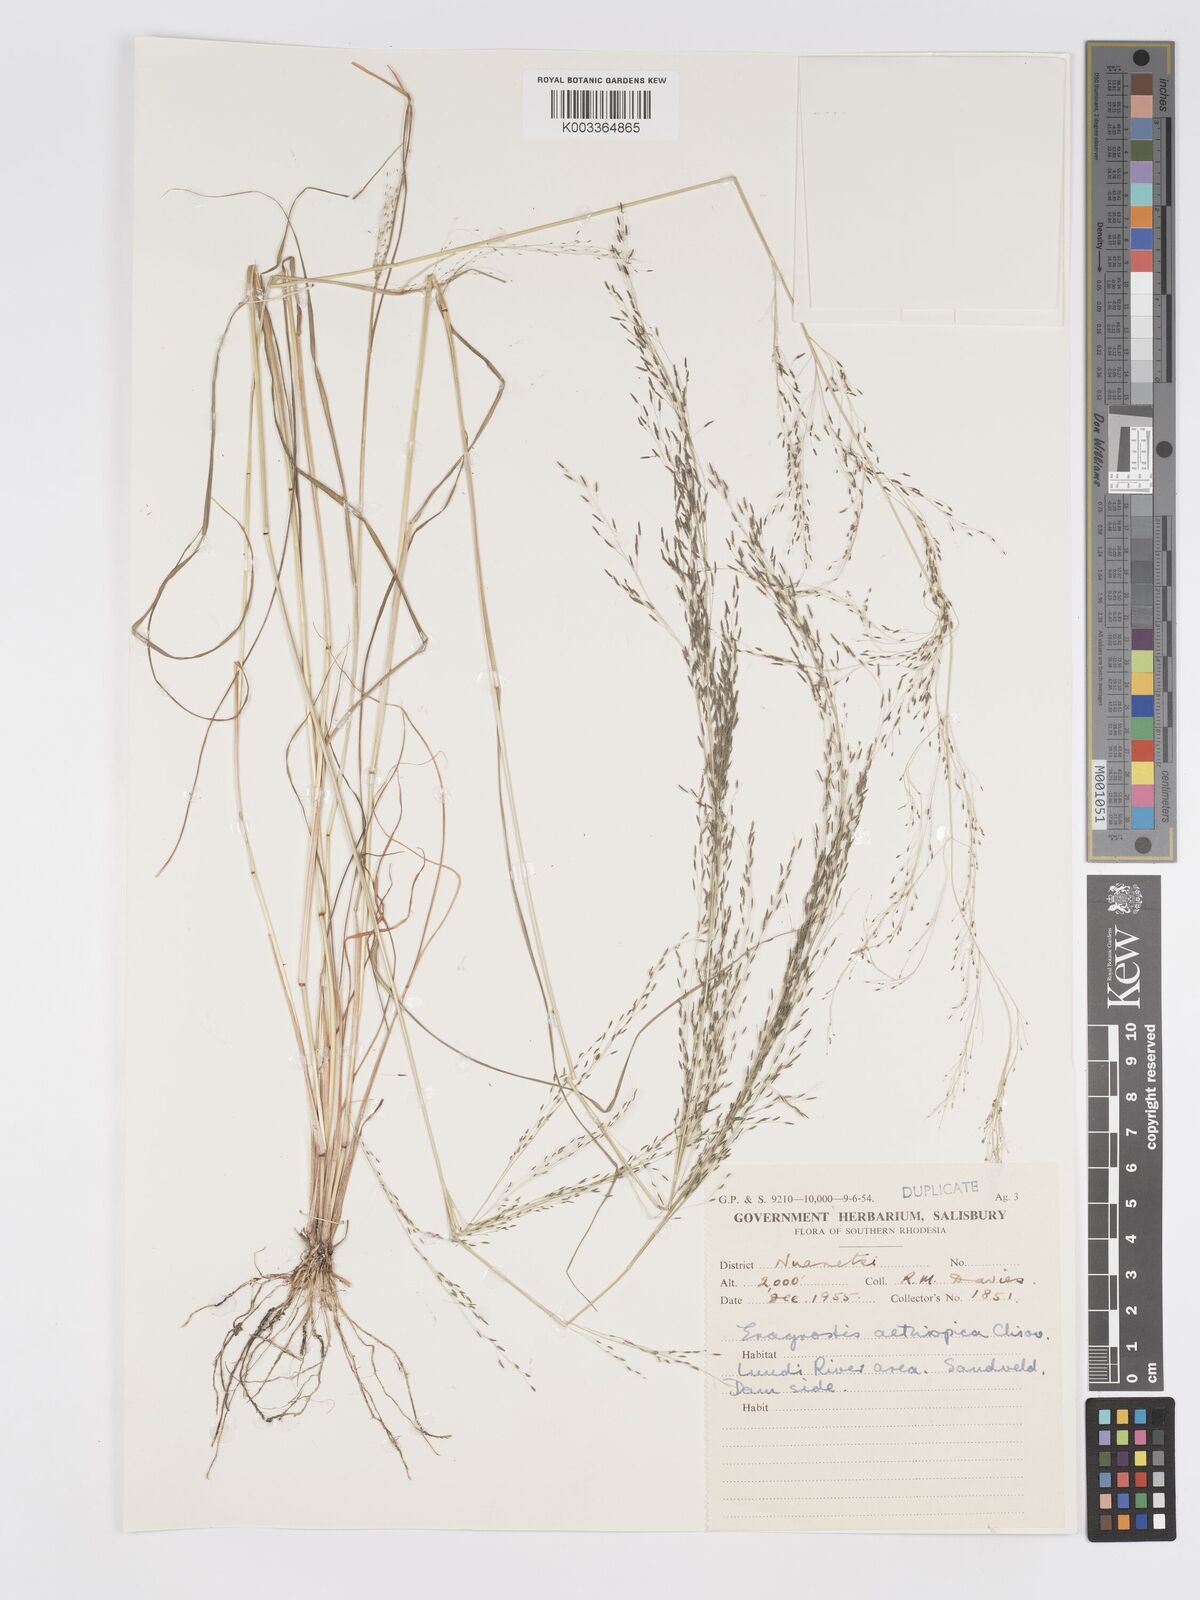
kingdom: Plantae
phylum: Tracheophyta
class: Liliopsida
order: Poales
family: Poaceae
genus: Eragrostis
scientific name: Eragrostis aethiopica
